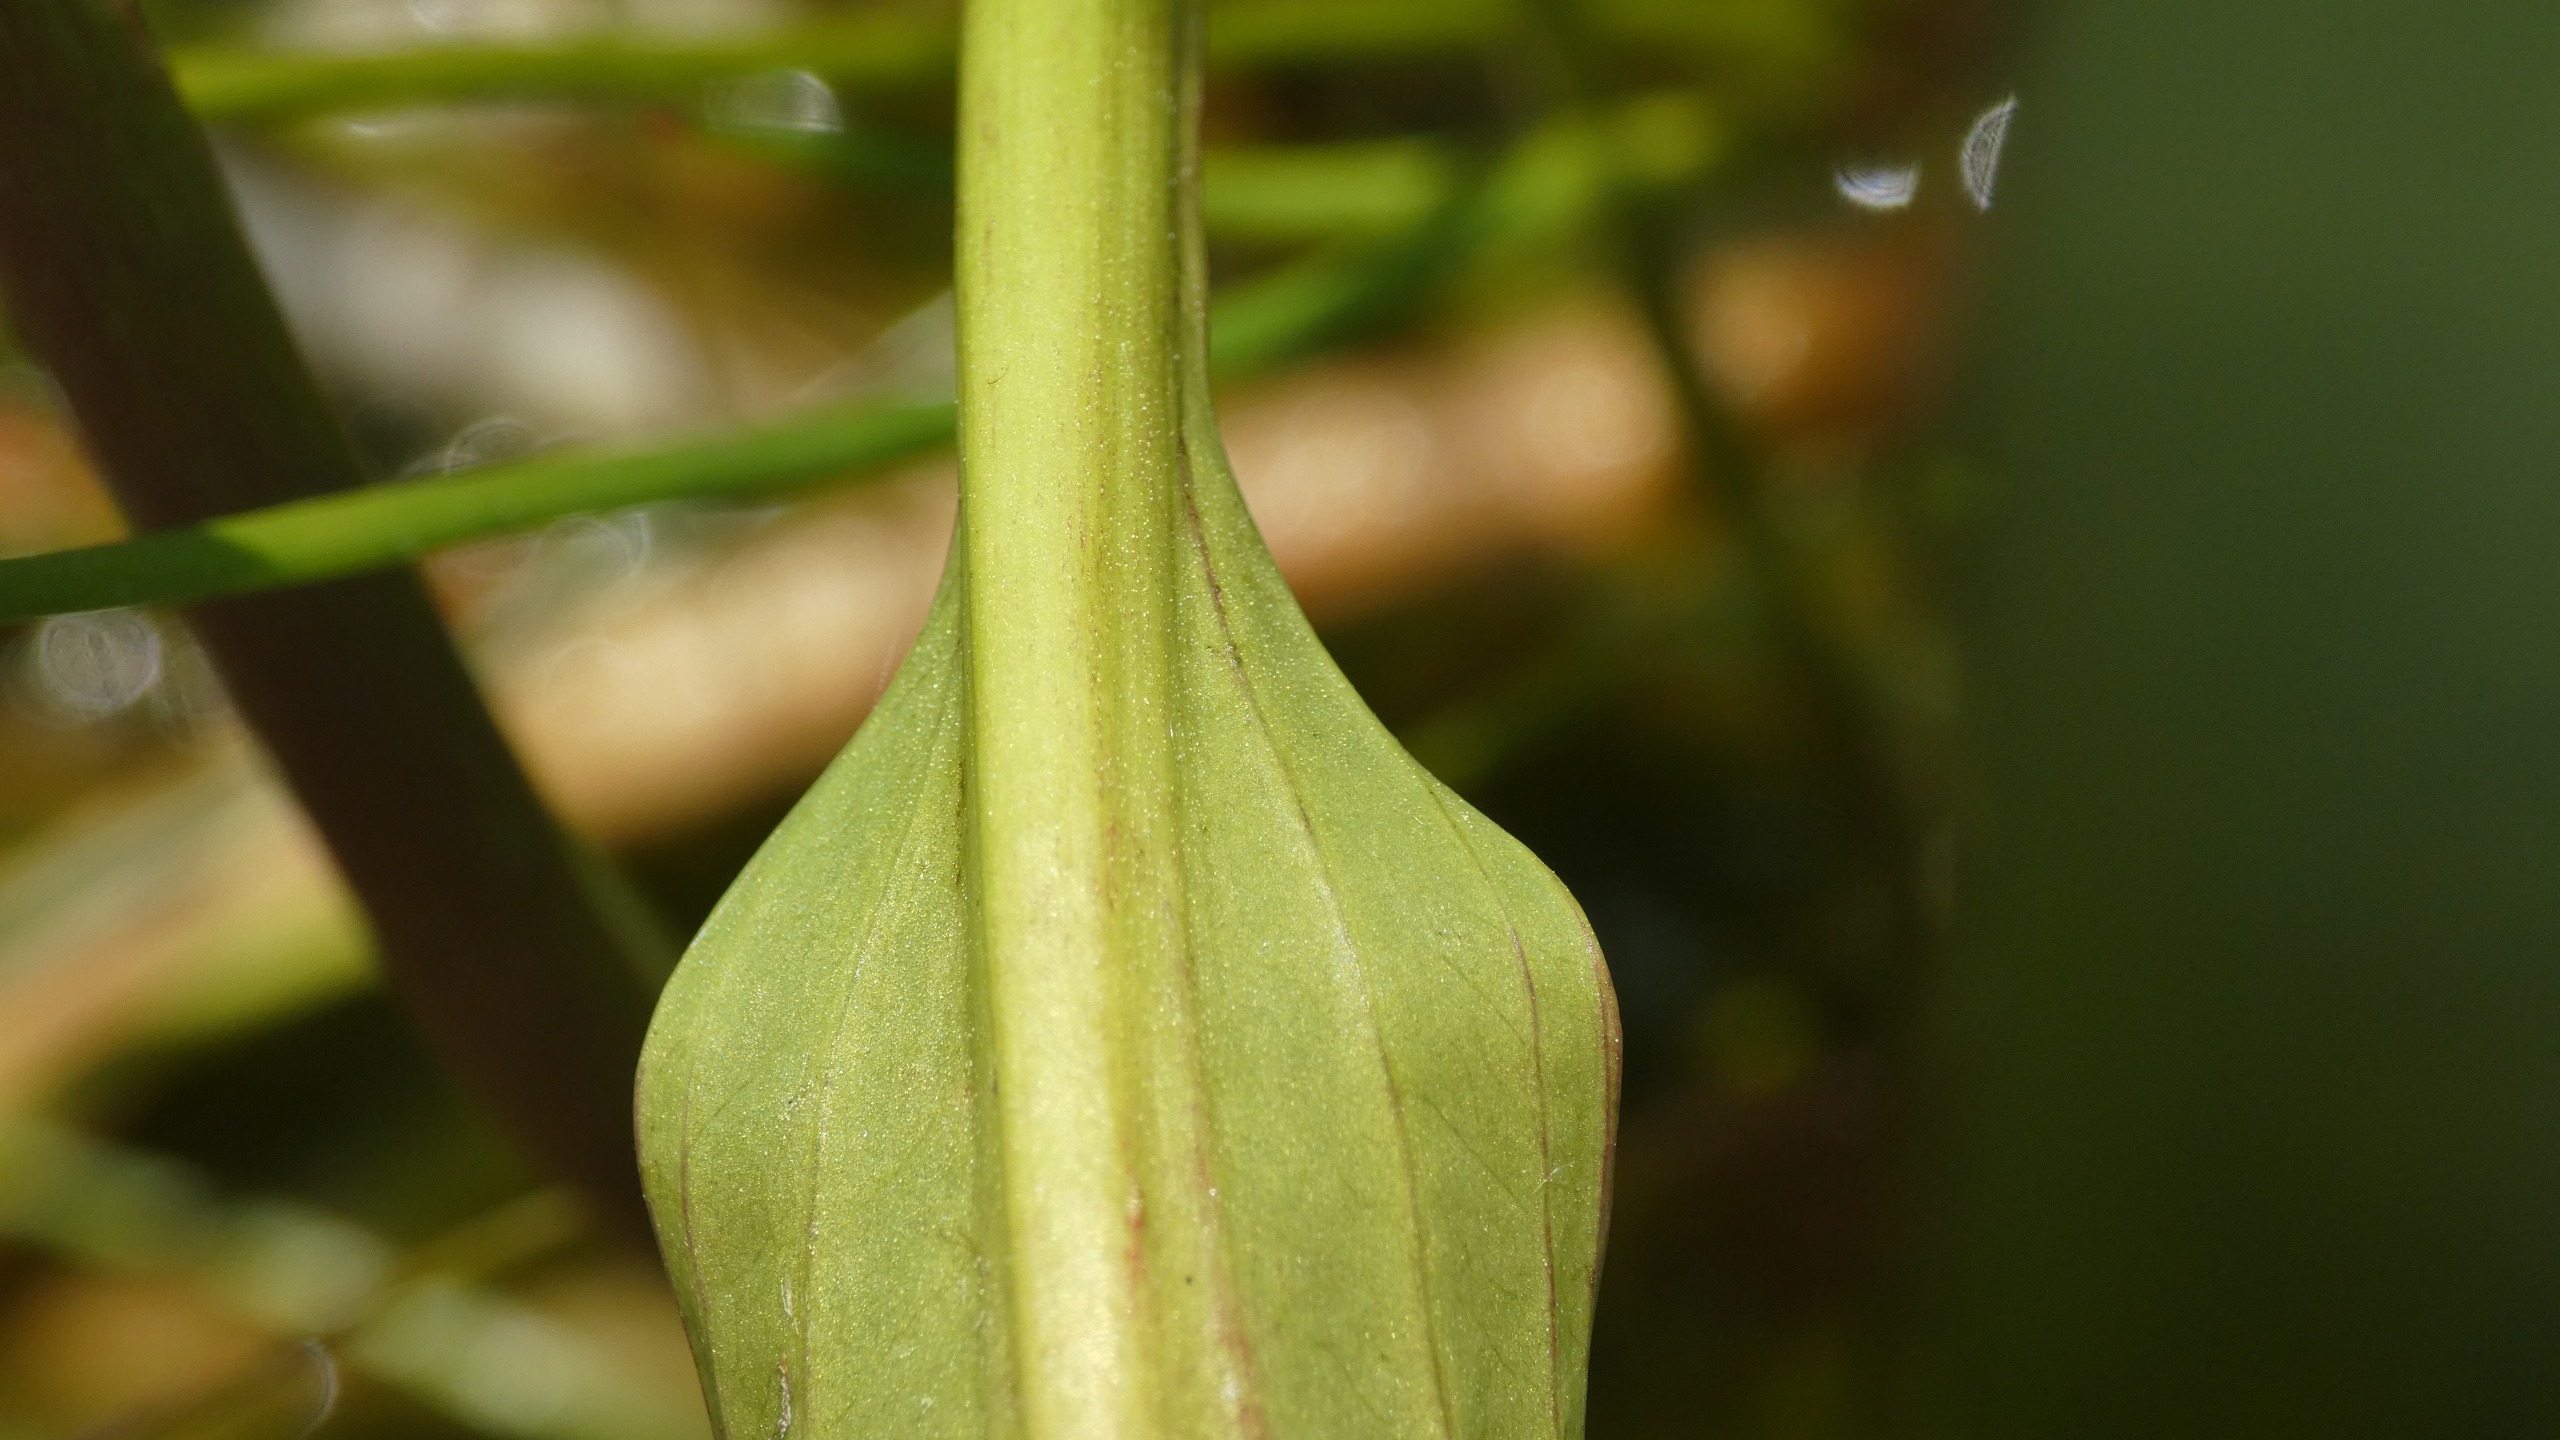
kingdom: Plantae
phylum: Tracheophyta
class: Liliopsida
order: Alismatales
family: Alismataceae
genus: Alisma
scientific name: Alisma plantago-aquatica
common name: Vejbred-skeblad
